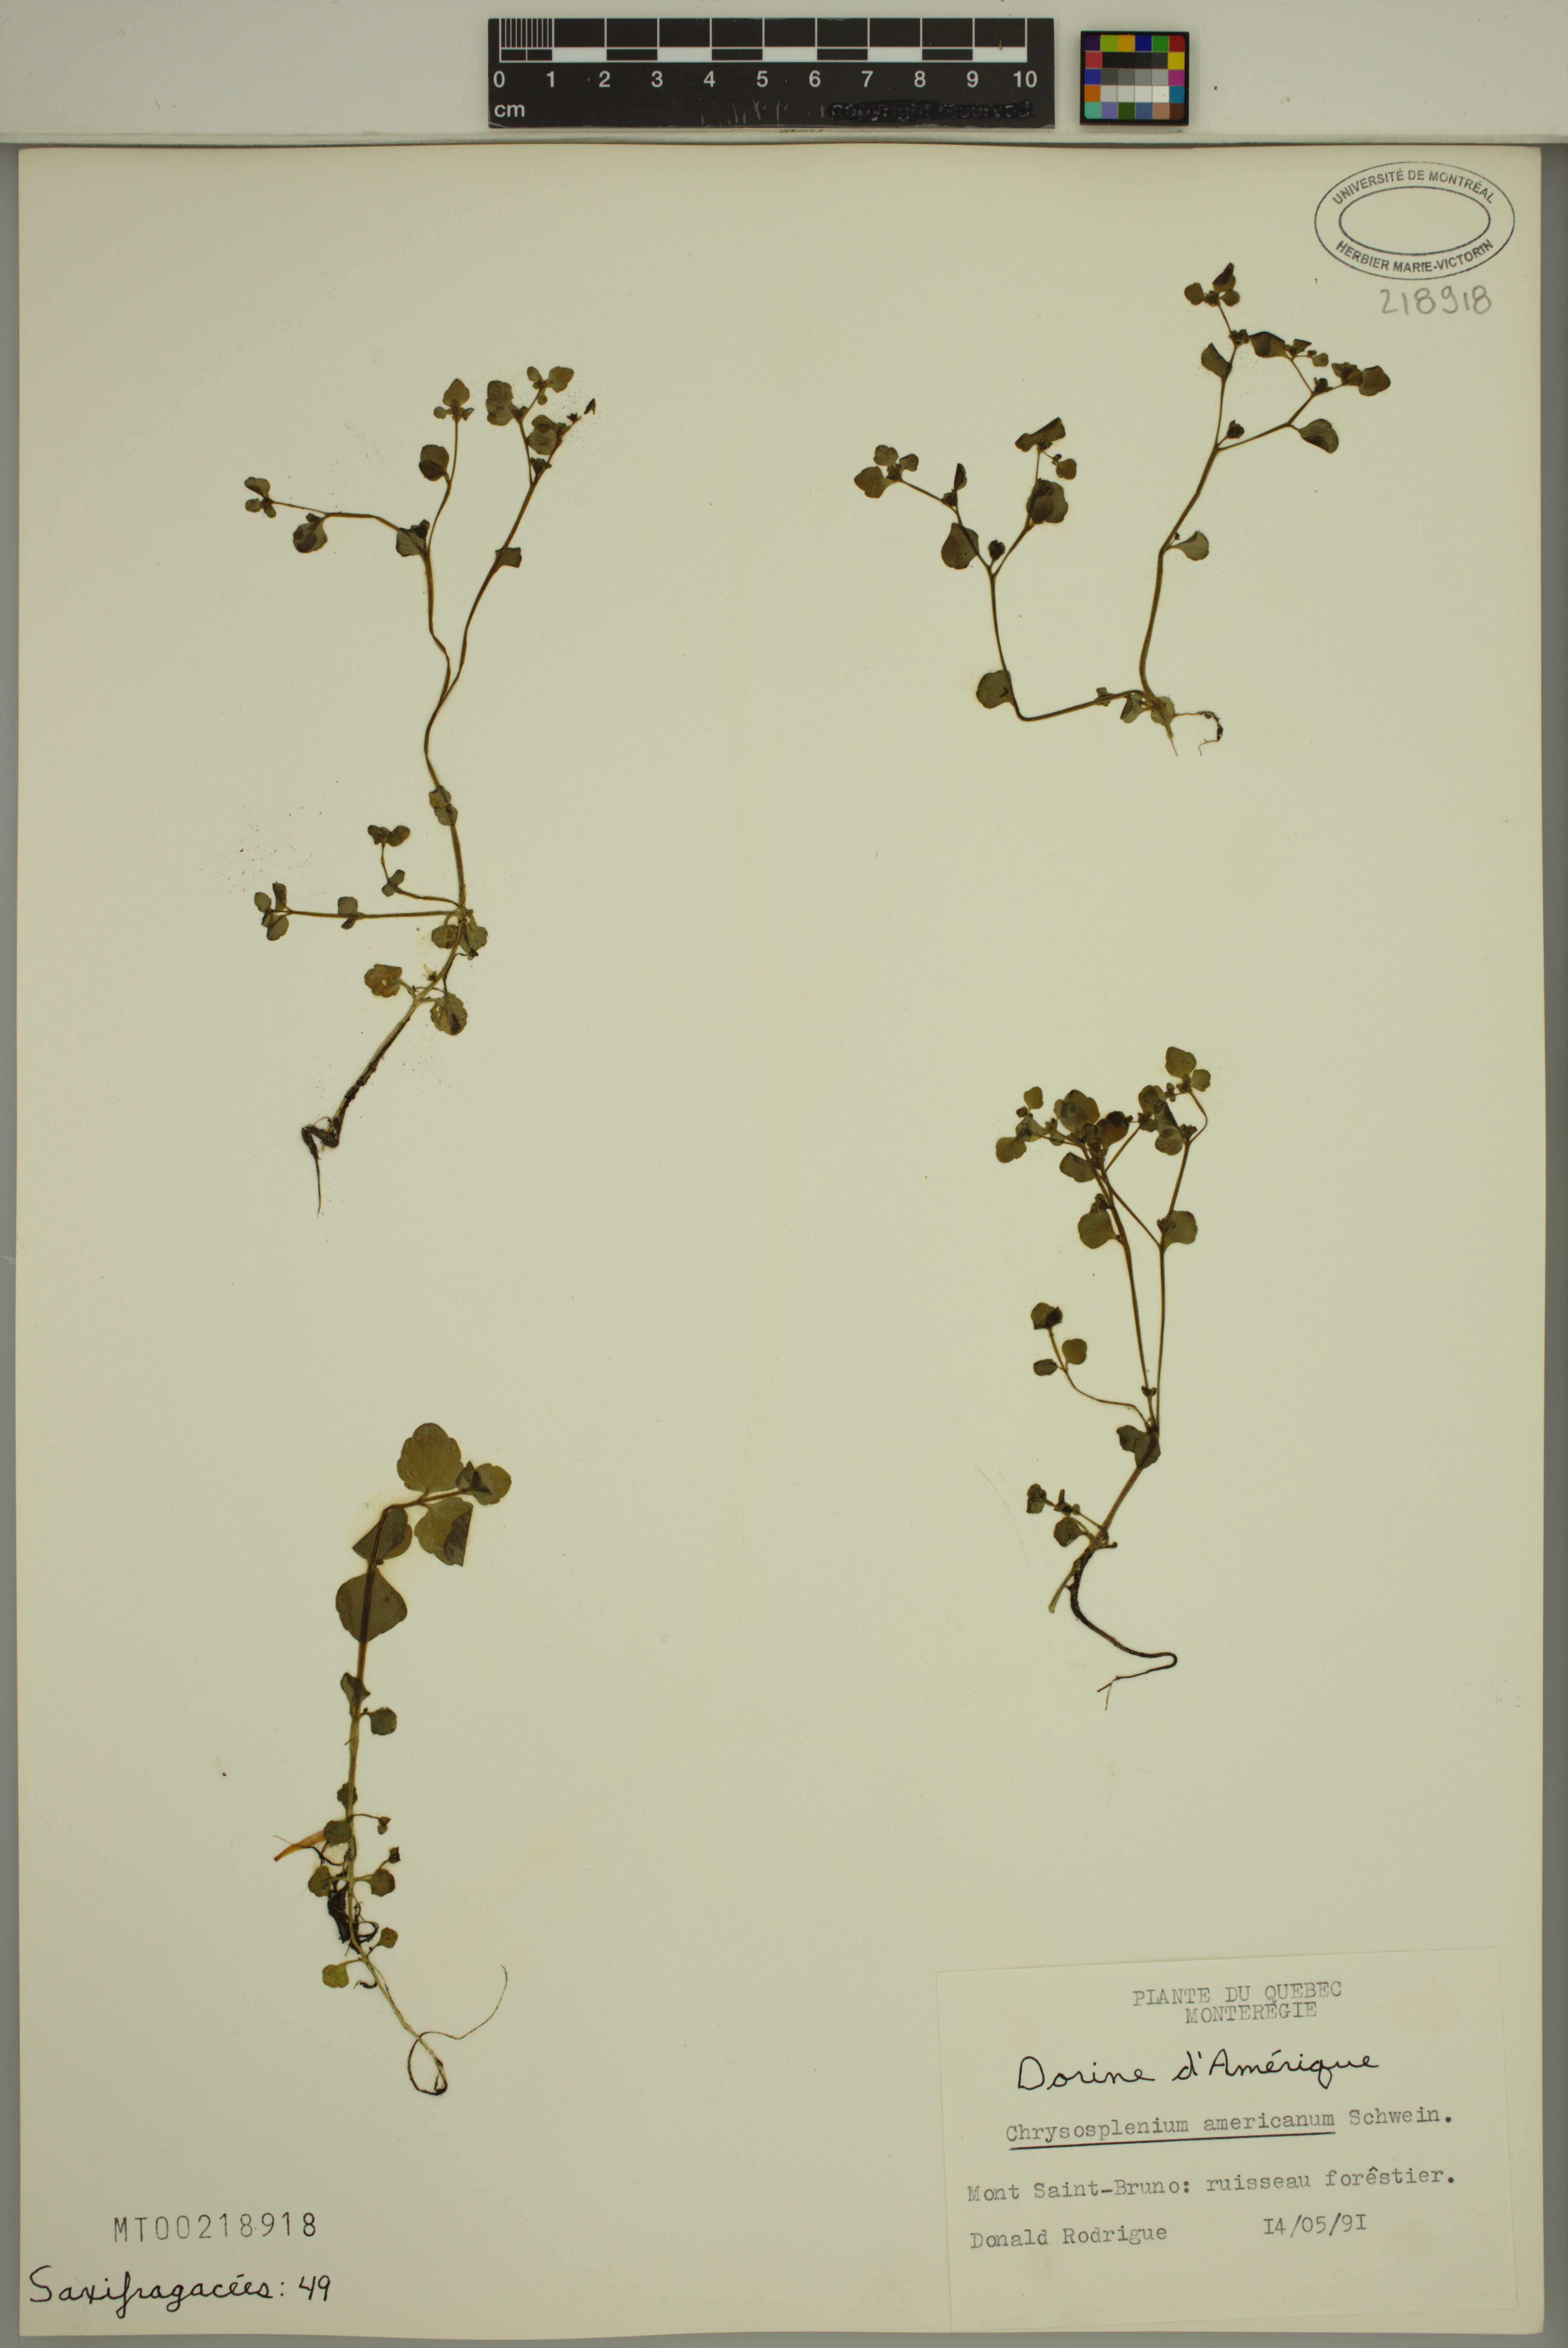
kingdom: Plantae
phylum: Tracheophyta
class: Magnoliopsida
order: Saxifragales
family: Saxifragaceae
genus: Chrysosplenium
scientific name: Chrysosplenium americanum
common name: American golden-saxifrage
